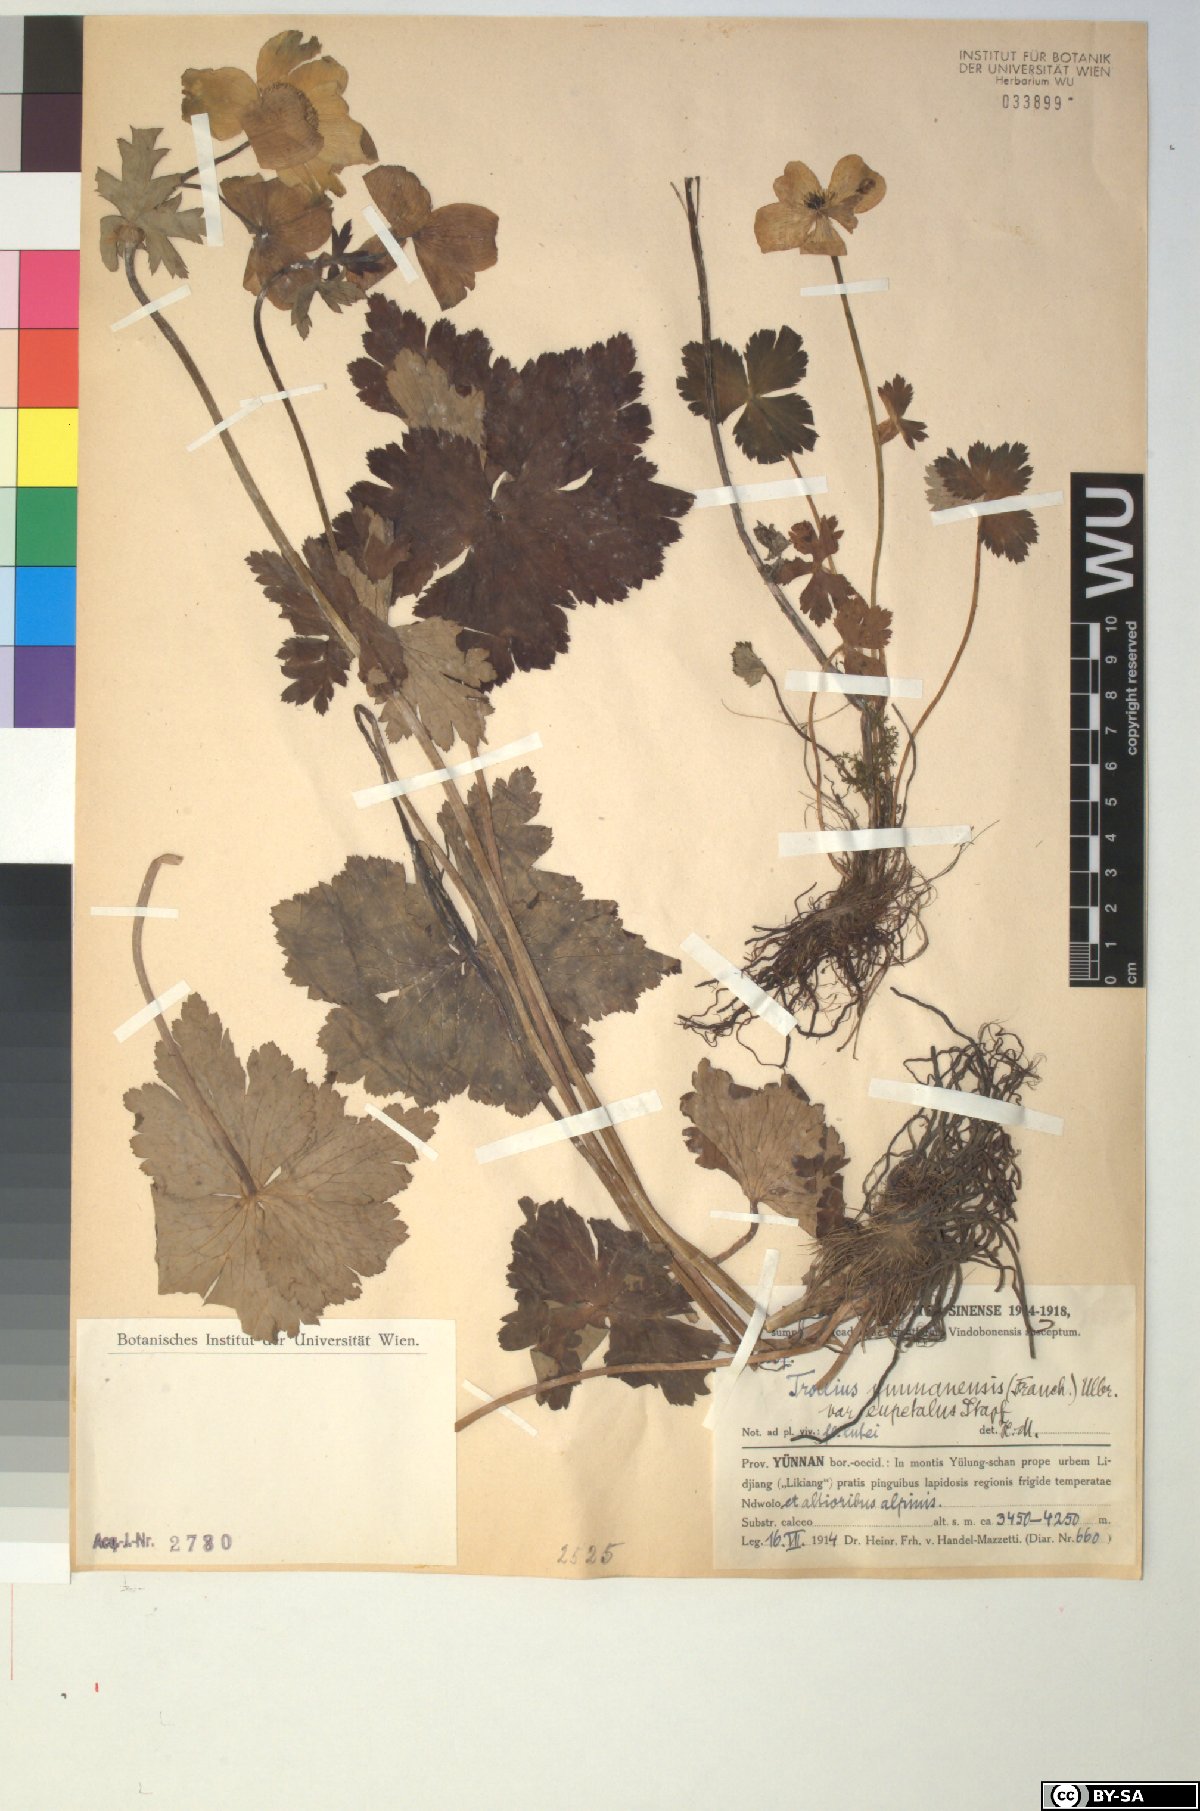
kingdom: Plantae
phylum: Tracheophyta
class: Magnoliopsida
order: Ranunculales
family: Ranunculaceae
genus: Trollius
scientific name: Trollius yunnanensis
